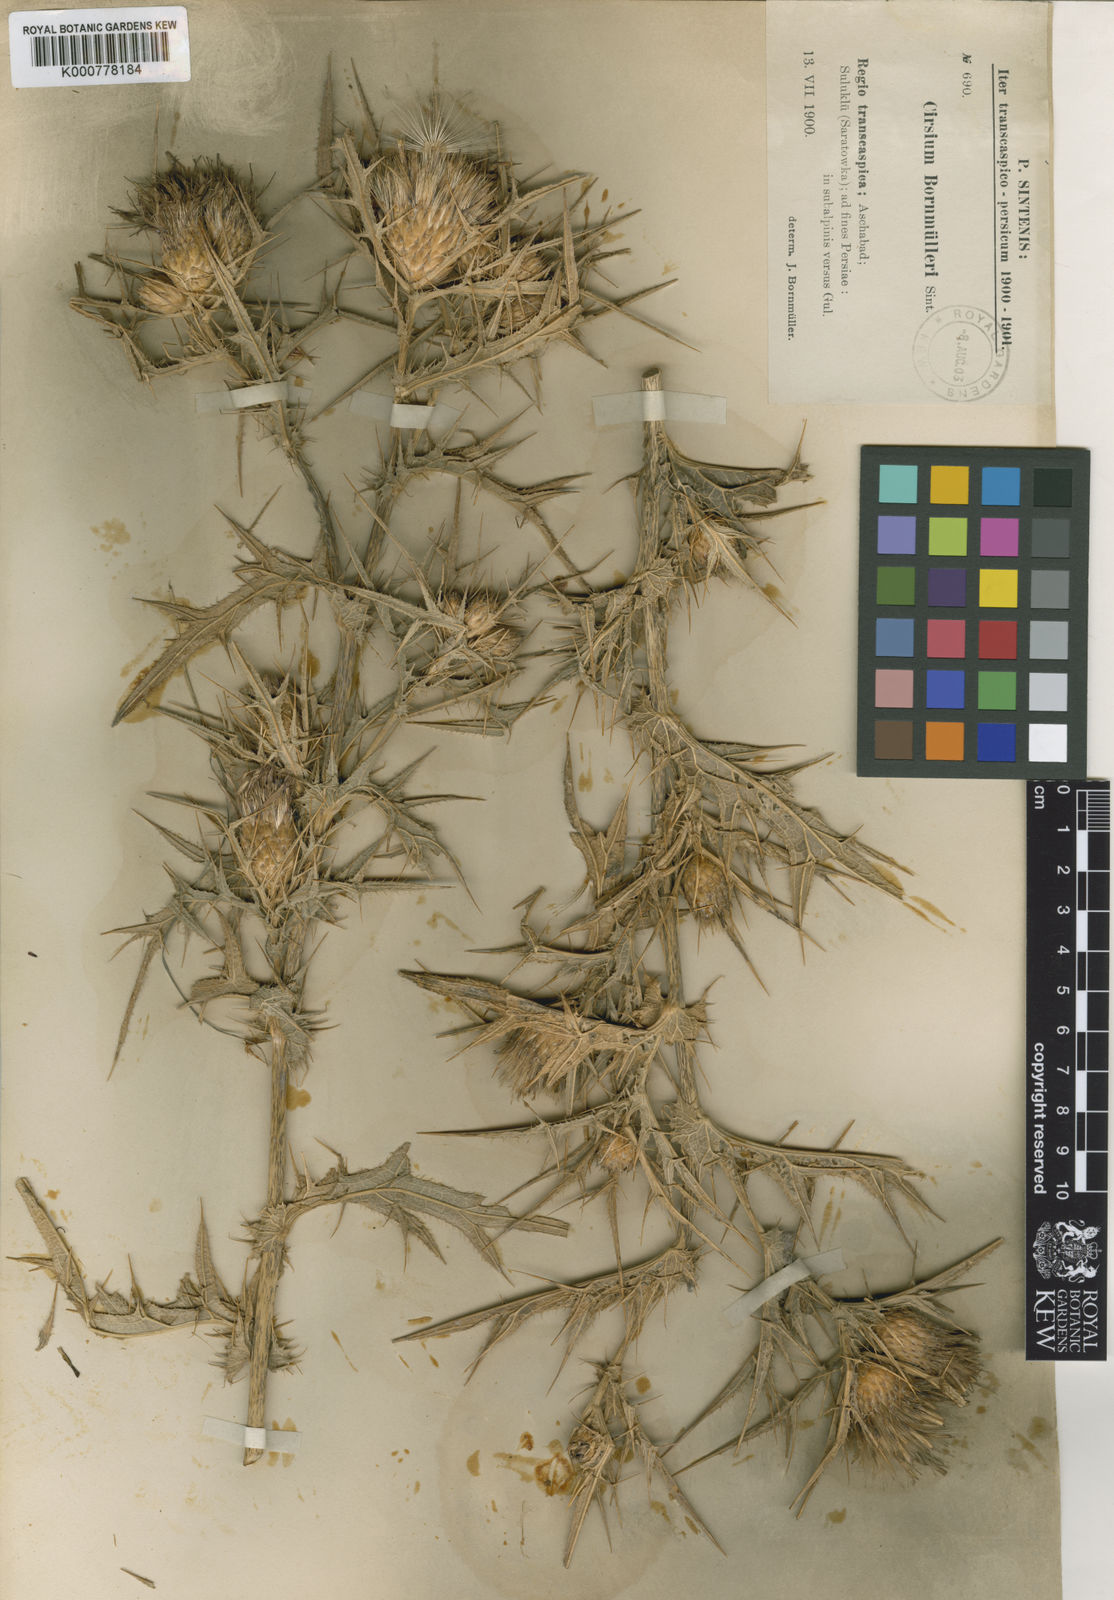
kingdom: Plantae
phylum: Tracheophyta
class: Magnoliopsida
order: Asterales
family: Asteraceae
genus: Lophiolepis
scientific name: Lophiolepis bornmuelleri
